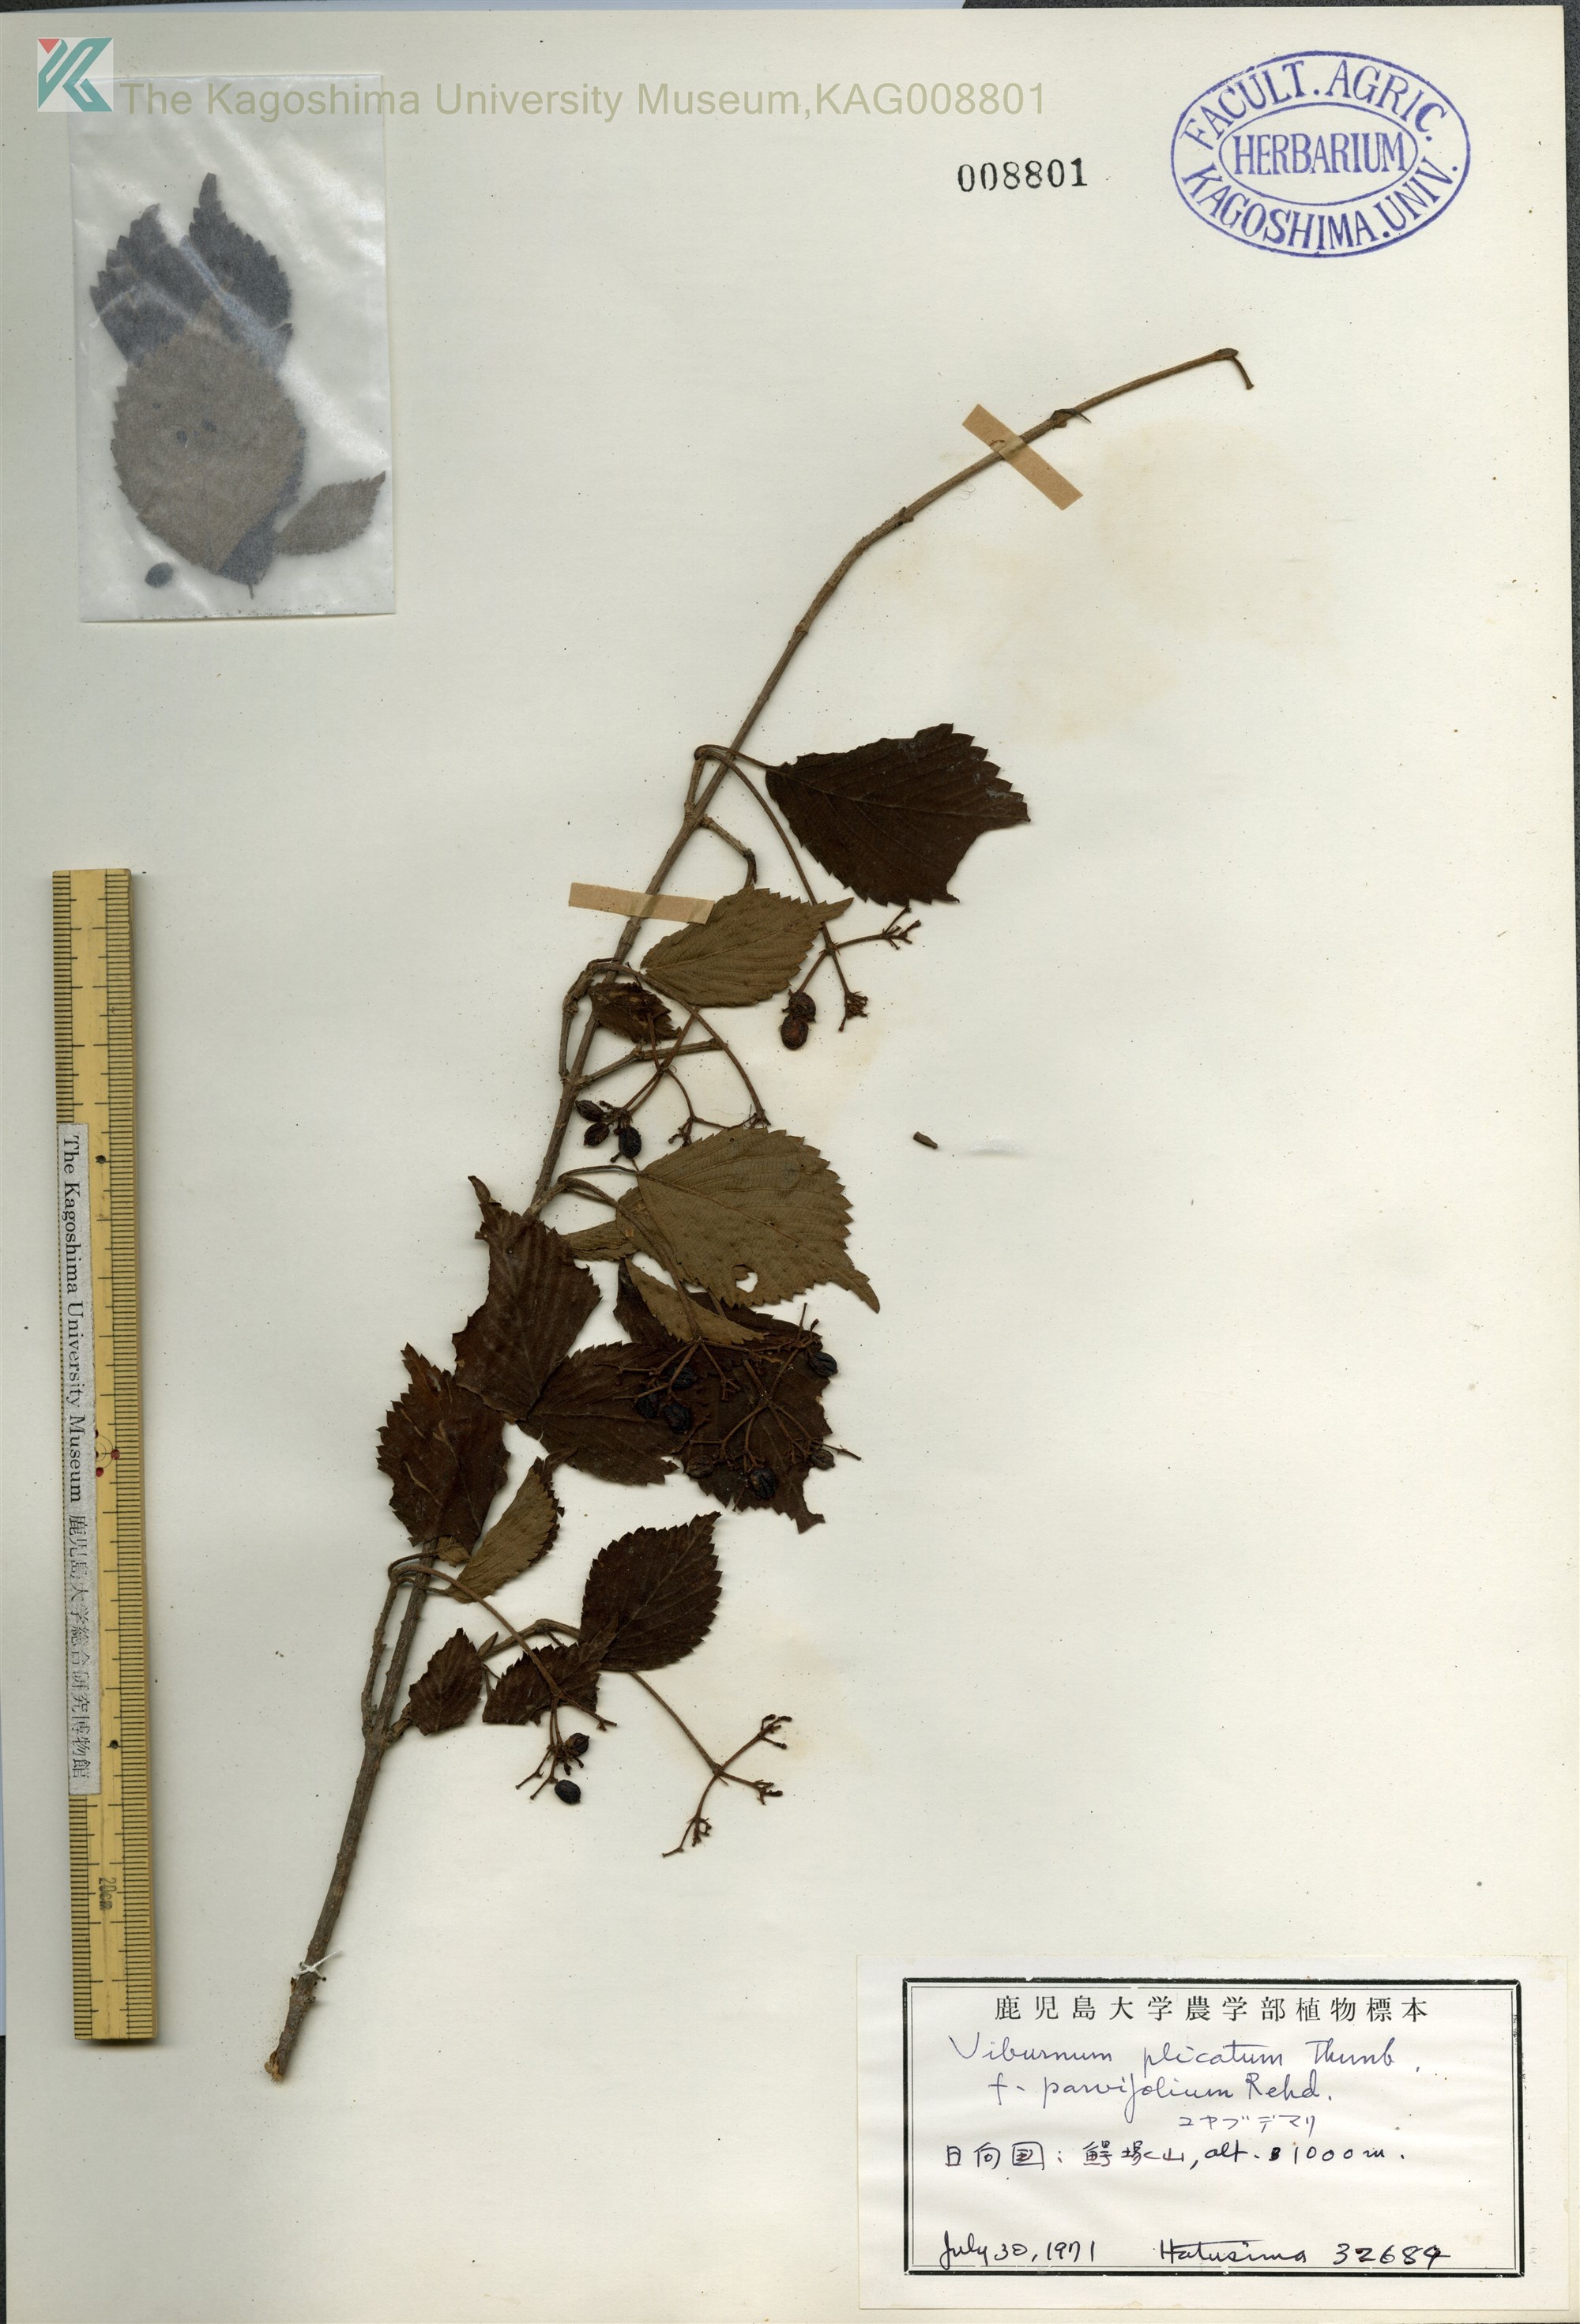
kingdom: Plantae
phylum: Tracheophyta
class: Magnoliopsida
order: Dipsacales
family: Viburnaceae
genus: Viburnum
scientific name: Viburnum plicatum
